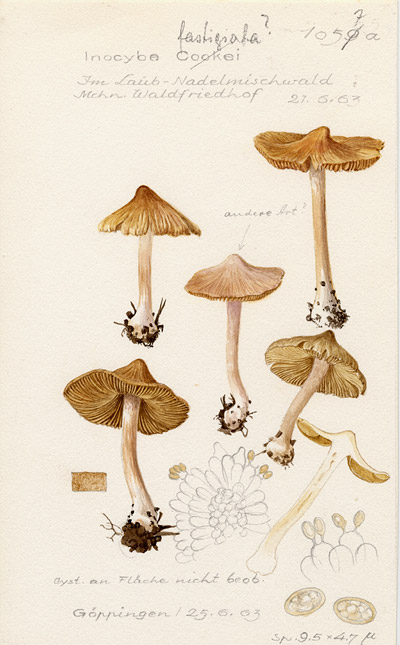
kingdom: Fungi
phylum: Basidiomycota
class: Agaricomycetes
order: Agaricales
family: Inocybaceae
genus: Pseudosperma
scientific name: Pseudosperma rimosum
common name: Split fibrecap
